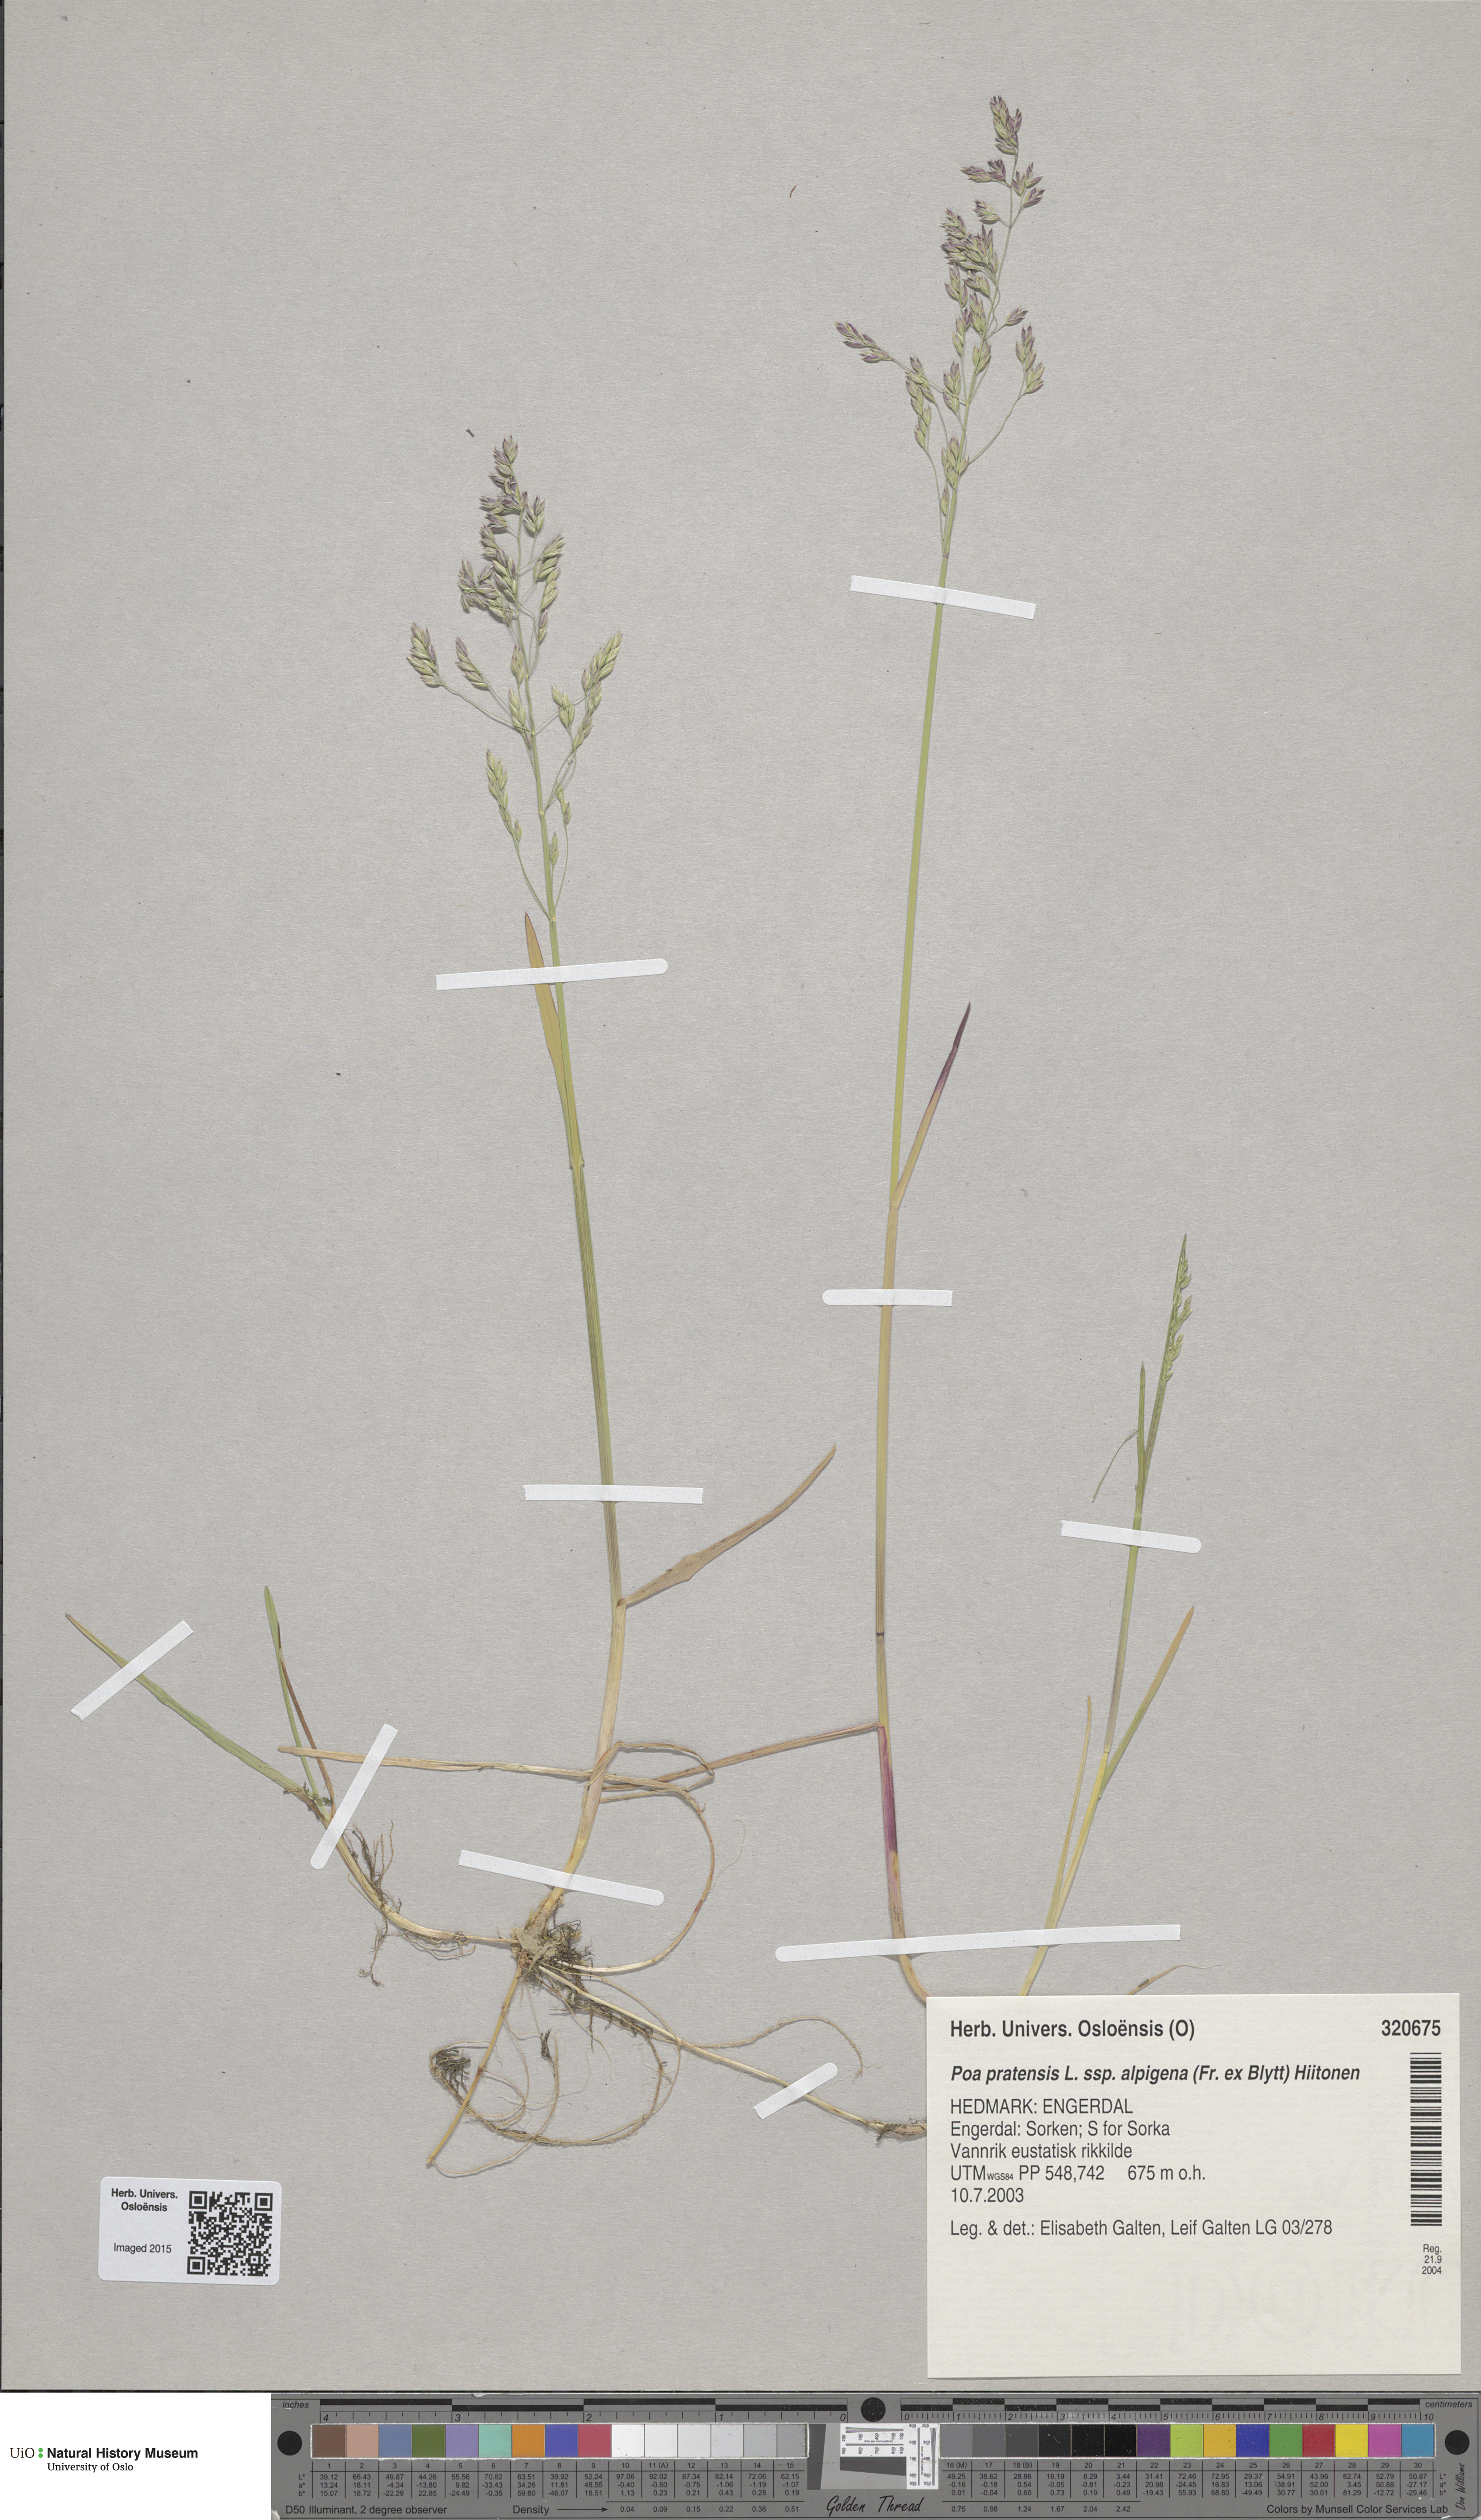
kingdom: Plantae
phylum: Tracheophyta
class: Liliopsida
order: Poales
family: Poaceae
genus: Poa
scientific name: Poa alpigena
